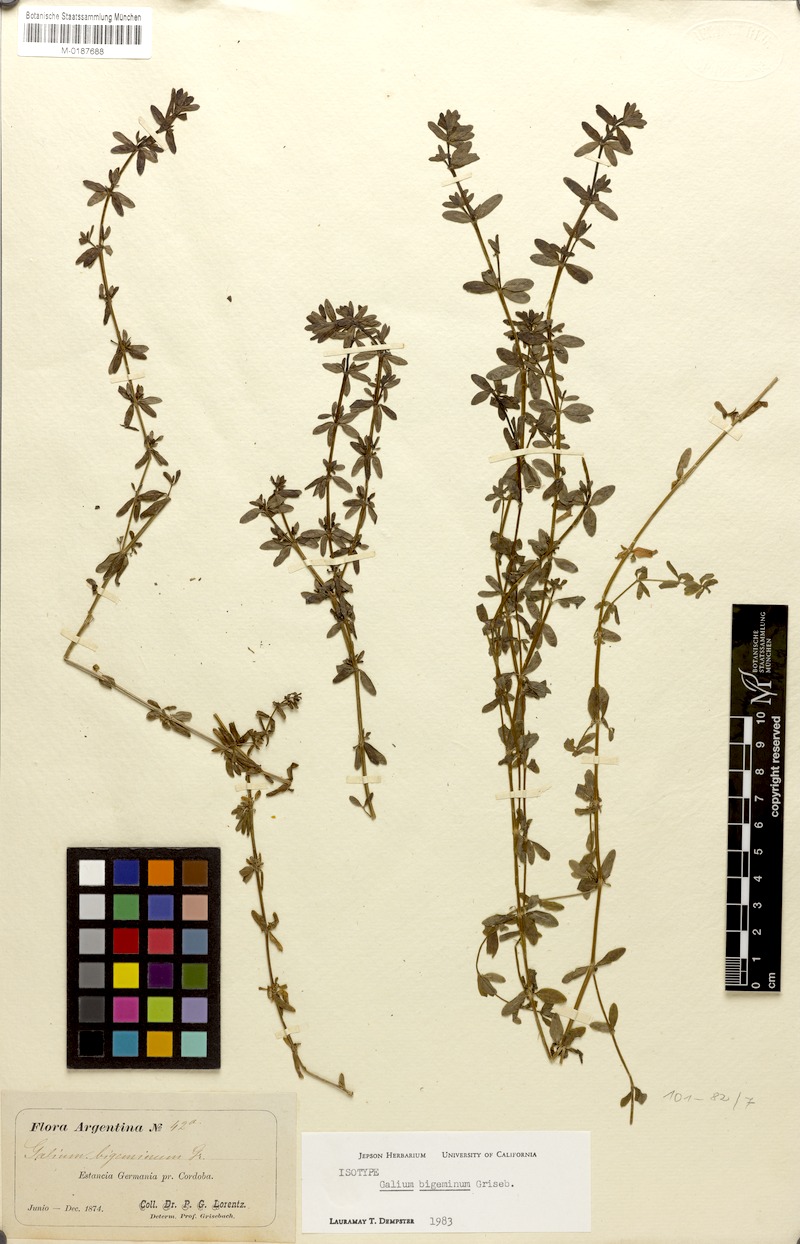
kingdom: Plantae
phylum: Tracheophyta
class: Magnoliopsida
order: Gentianales
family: Rubiaceae
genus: Galium
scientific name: Galium bigeminum
